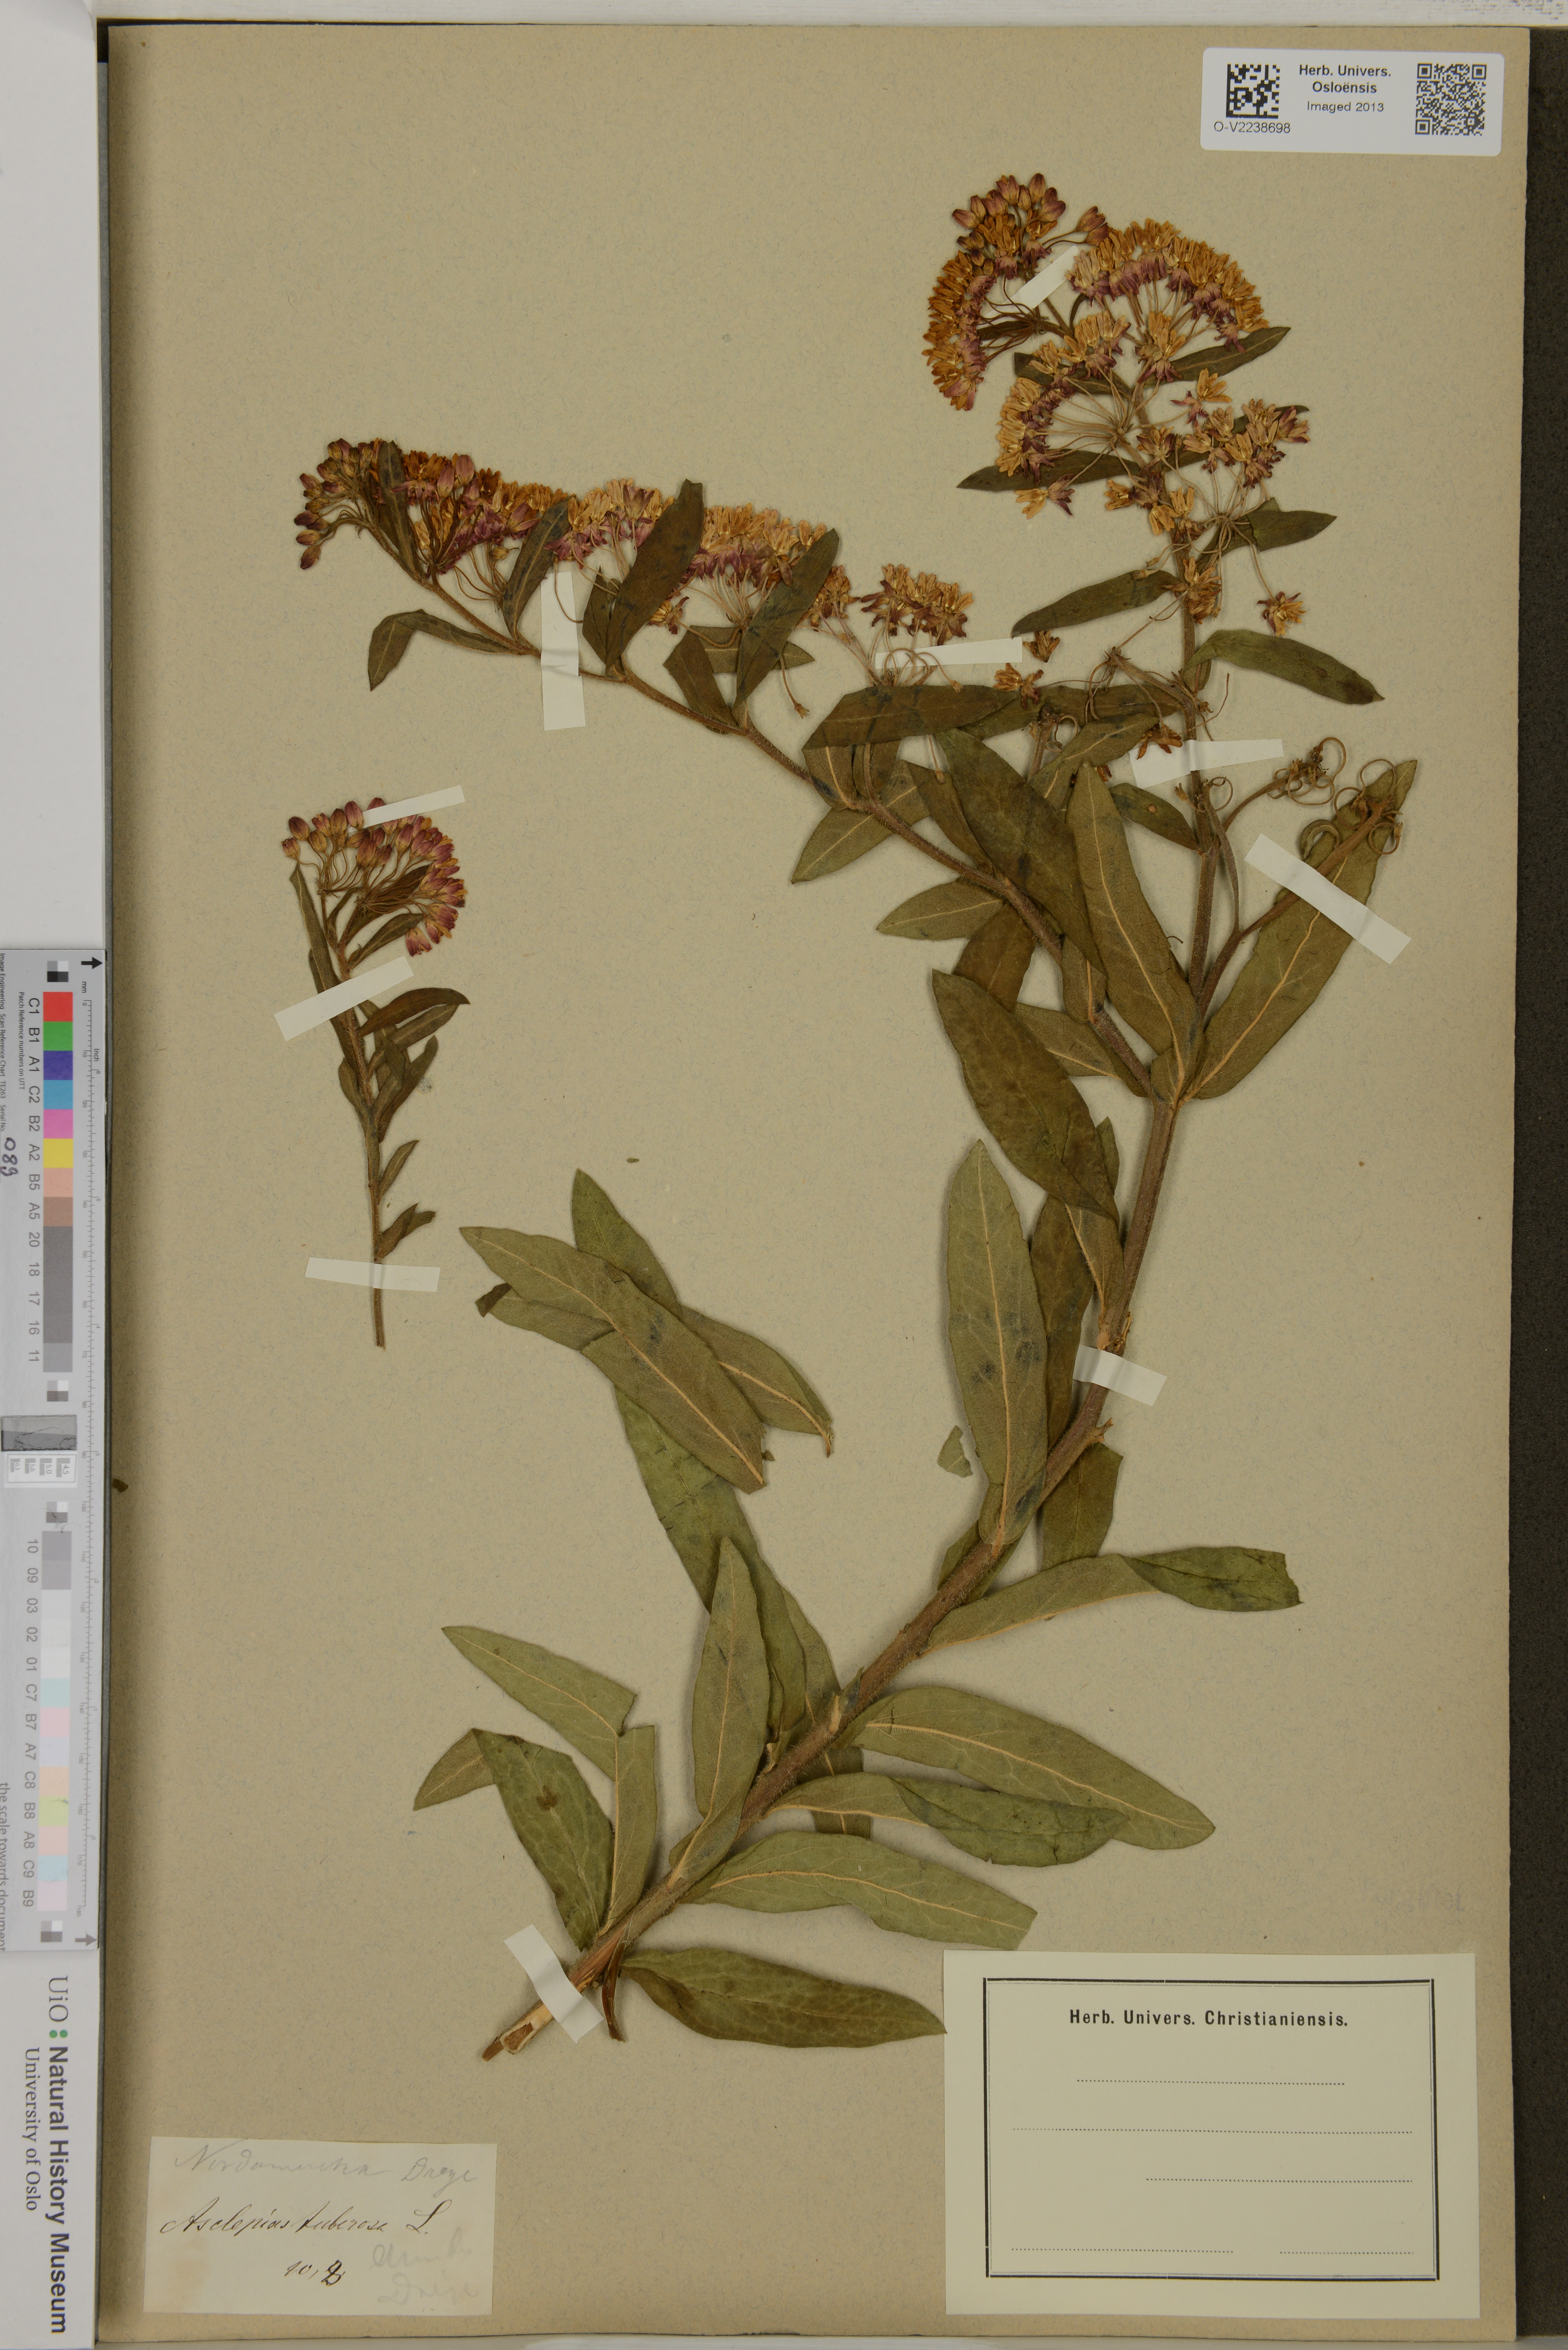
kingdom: Plantae
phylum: Tracheophyta
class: Magnoliopsida
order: Gentianales
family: Apocynaceae
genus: Asclepias
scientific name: Asclepias tuberosa
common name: Butterfly milkweed
